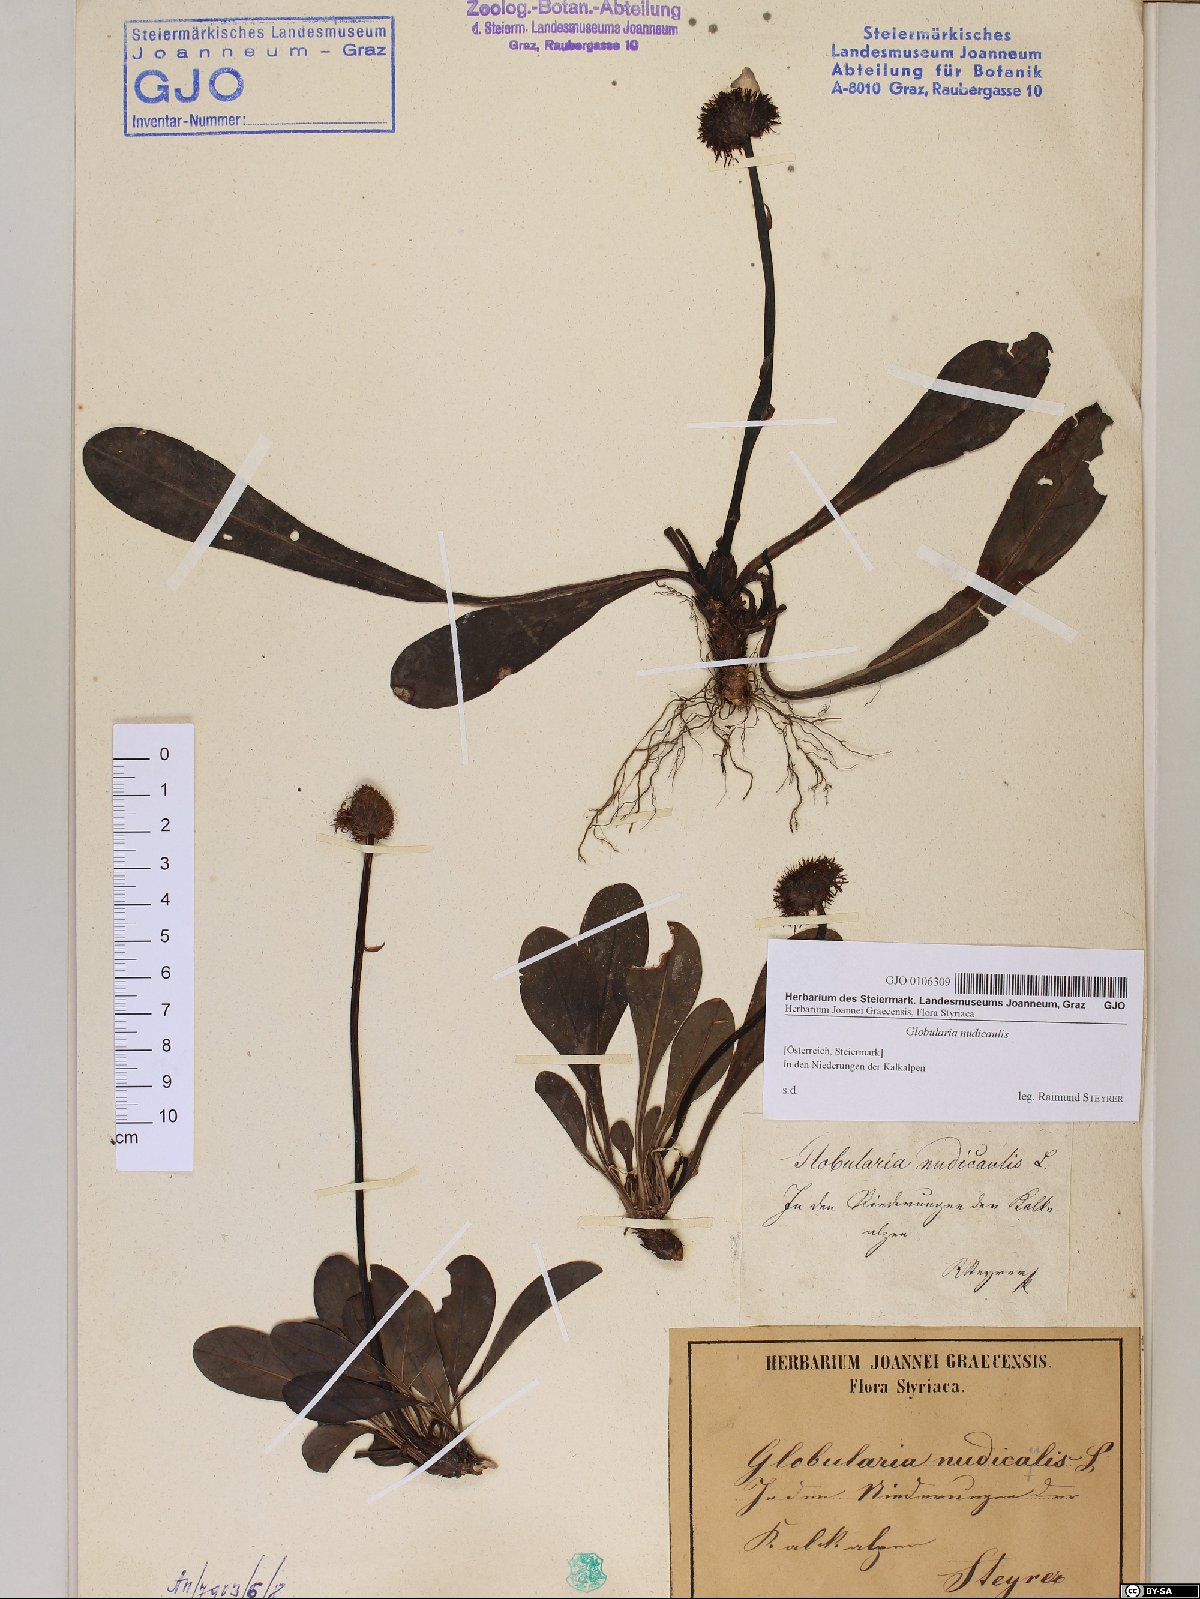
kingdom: Plantae
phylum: Tracheophyta
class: Magnoliopsida
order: Lamiales
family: Plantaginaceae
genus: Globularia
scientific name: Globularia nudicaulis
